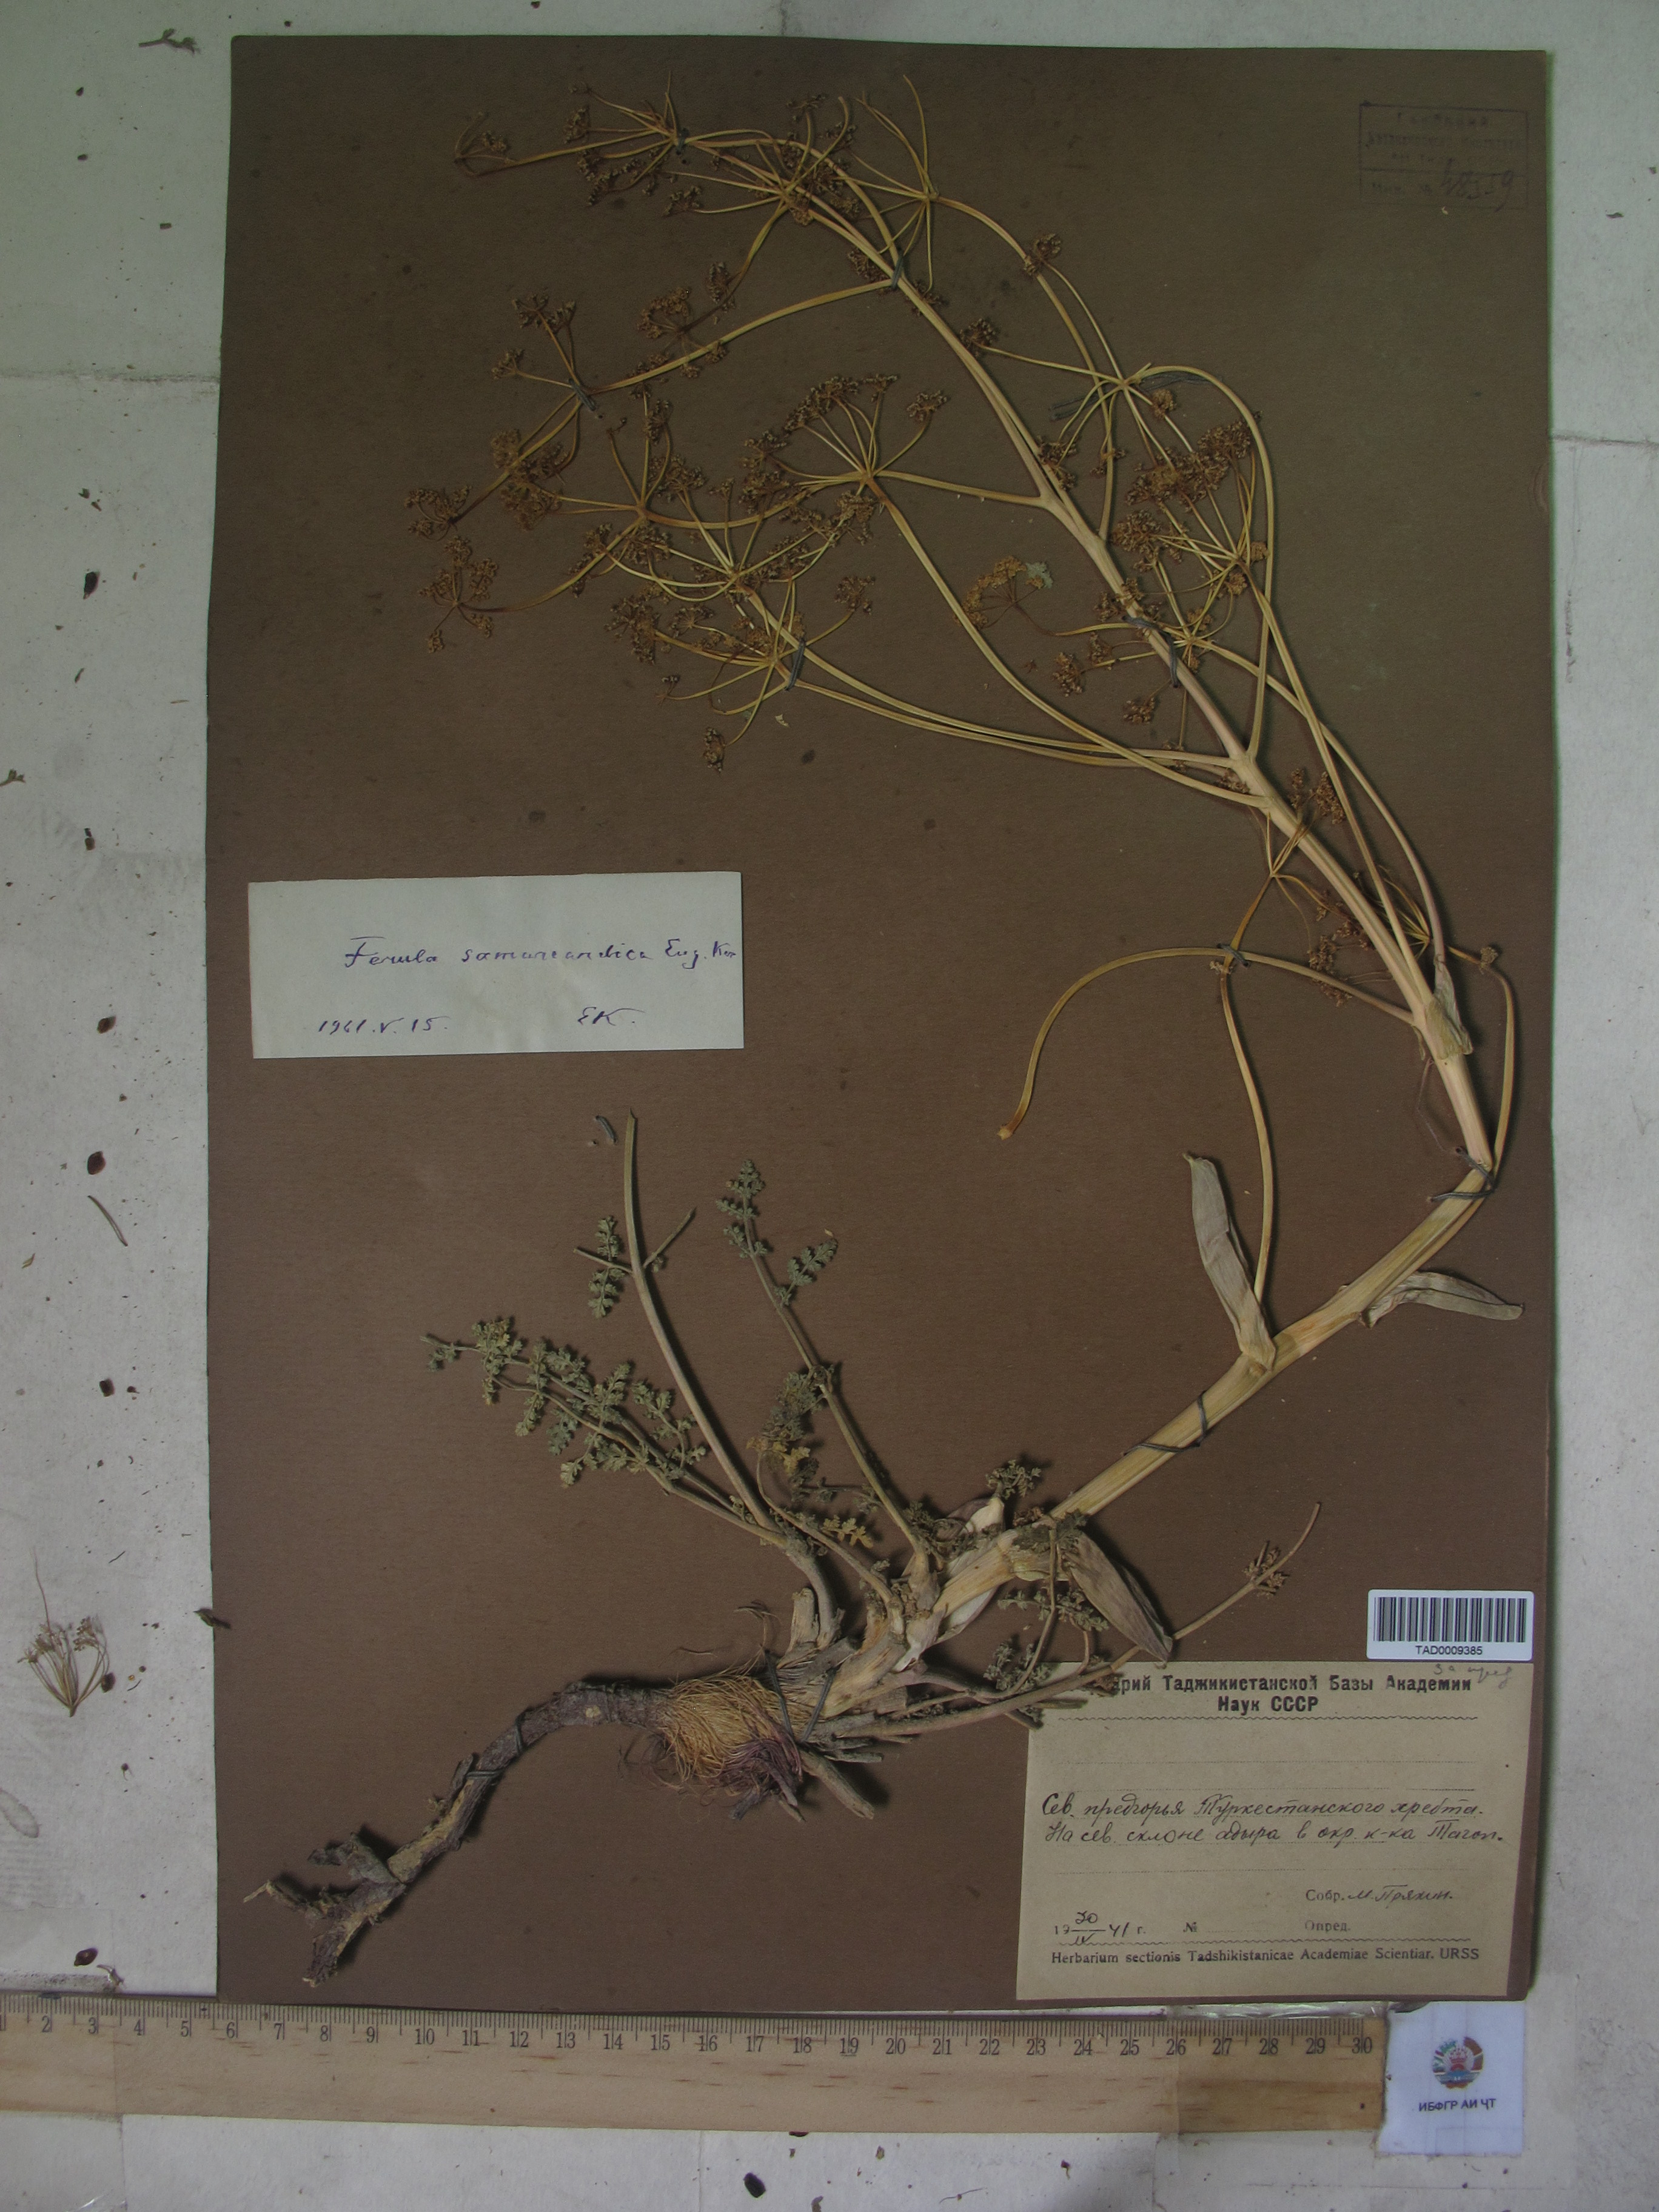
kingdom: Plantae
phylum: Tracheophyta
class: Magnoliopsida
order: Apiales
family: Apiaceae
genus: Ferula
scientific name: Ferula samarkandica
